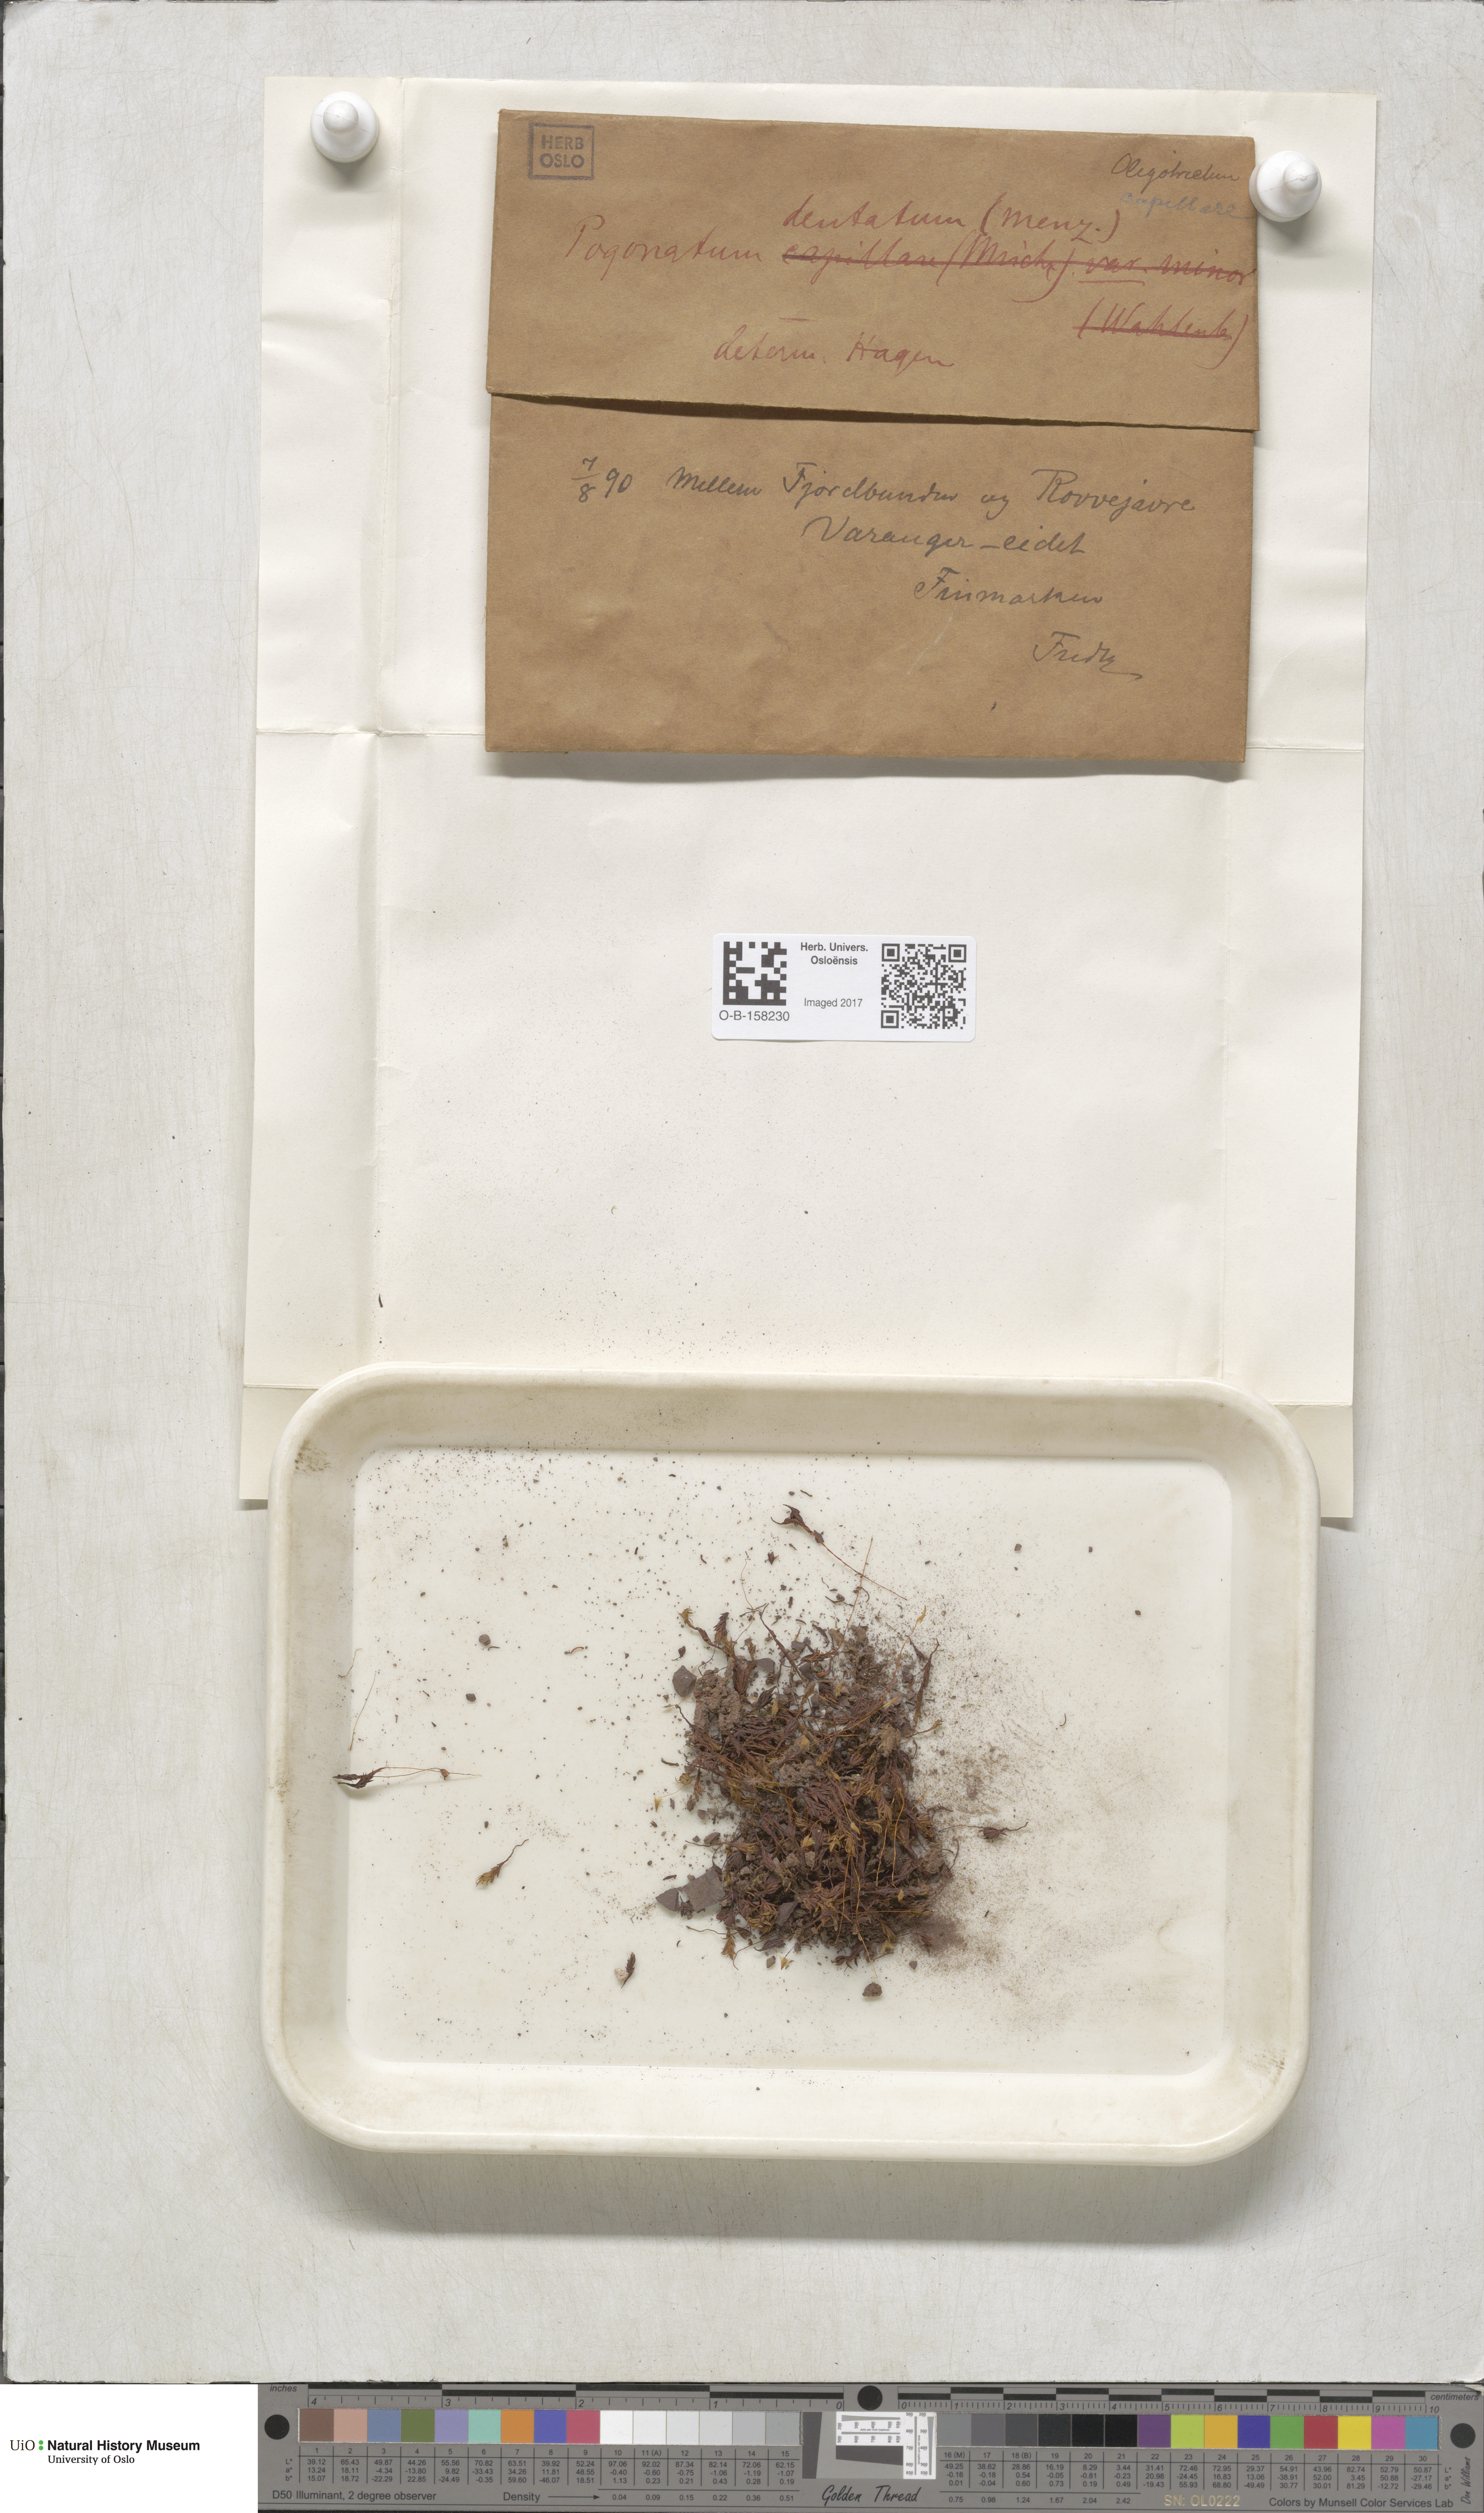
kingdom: Plantae
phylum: Bryophyta
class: Polytrichopsida
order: Polytrichales
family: Polytrichaceae
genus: Pogonatum
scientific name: Pogonatum dentatum
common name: Mountain hair moss
